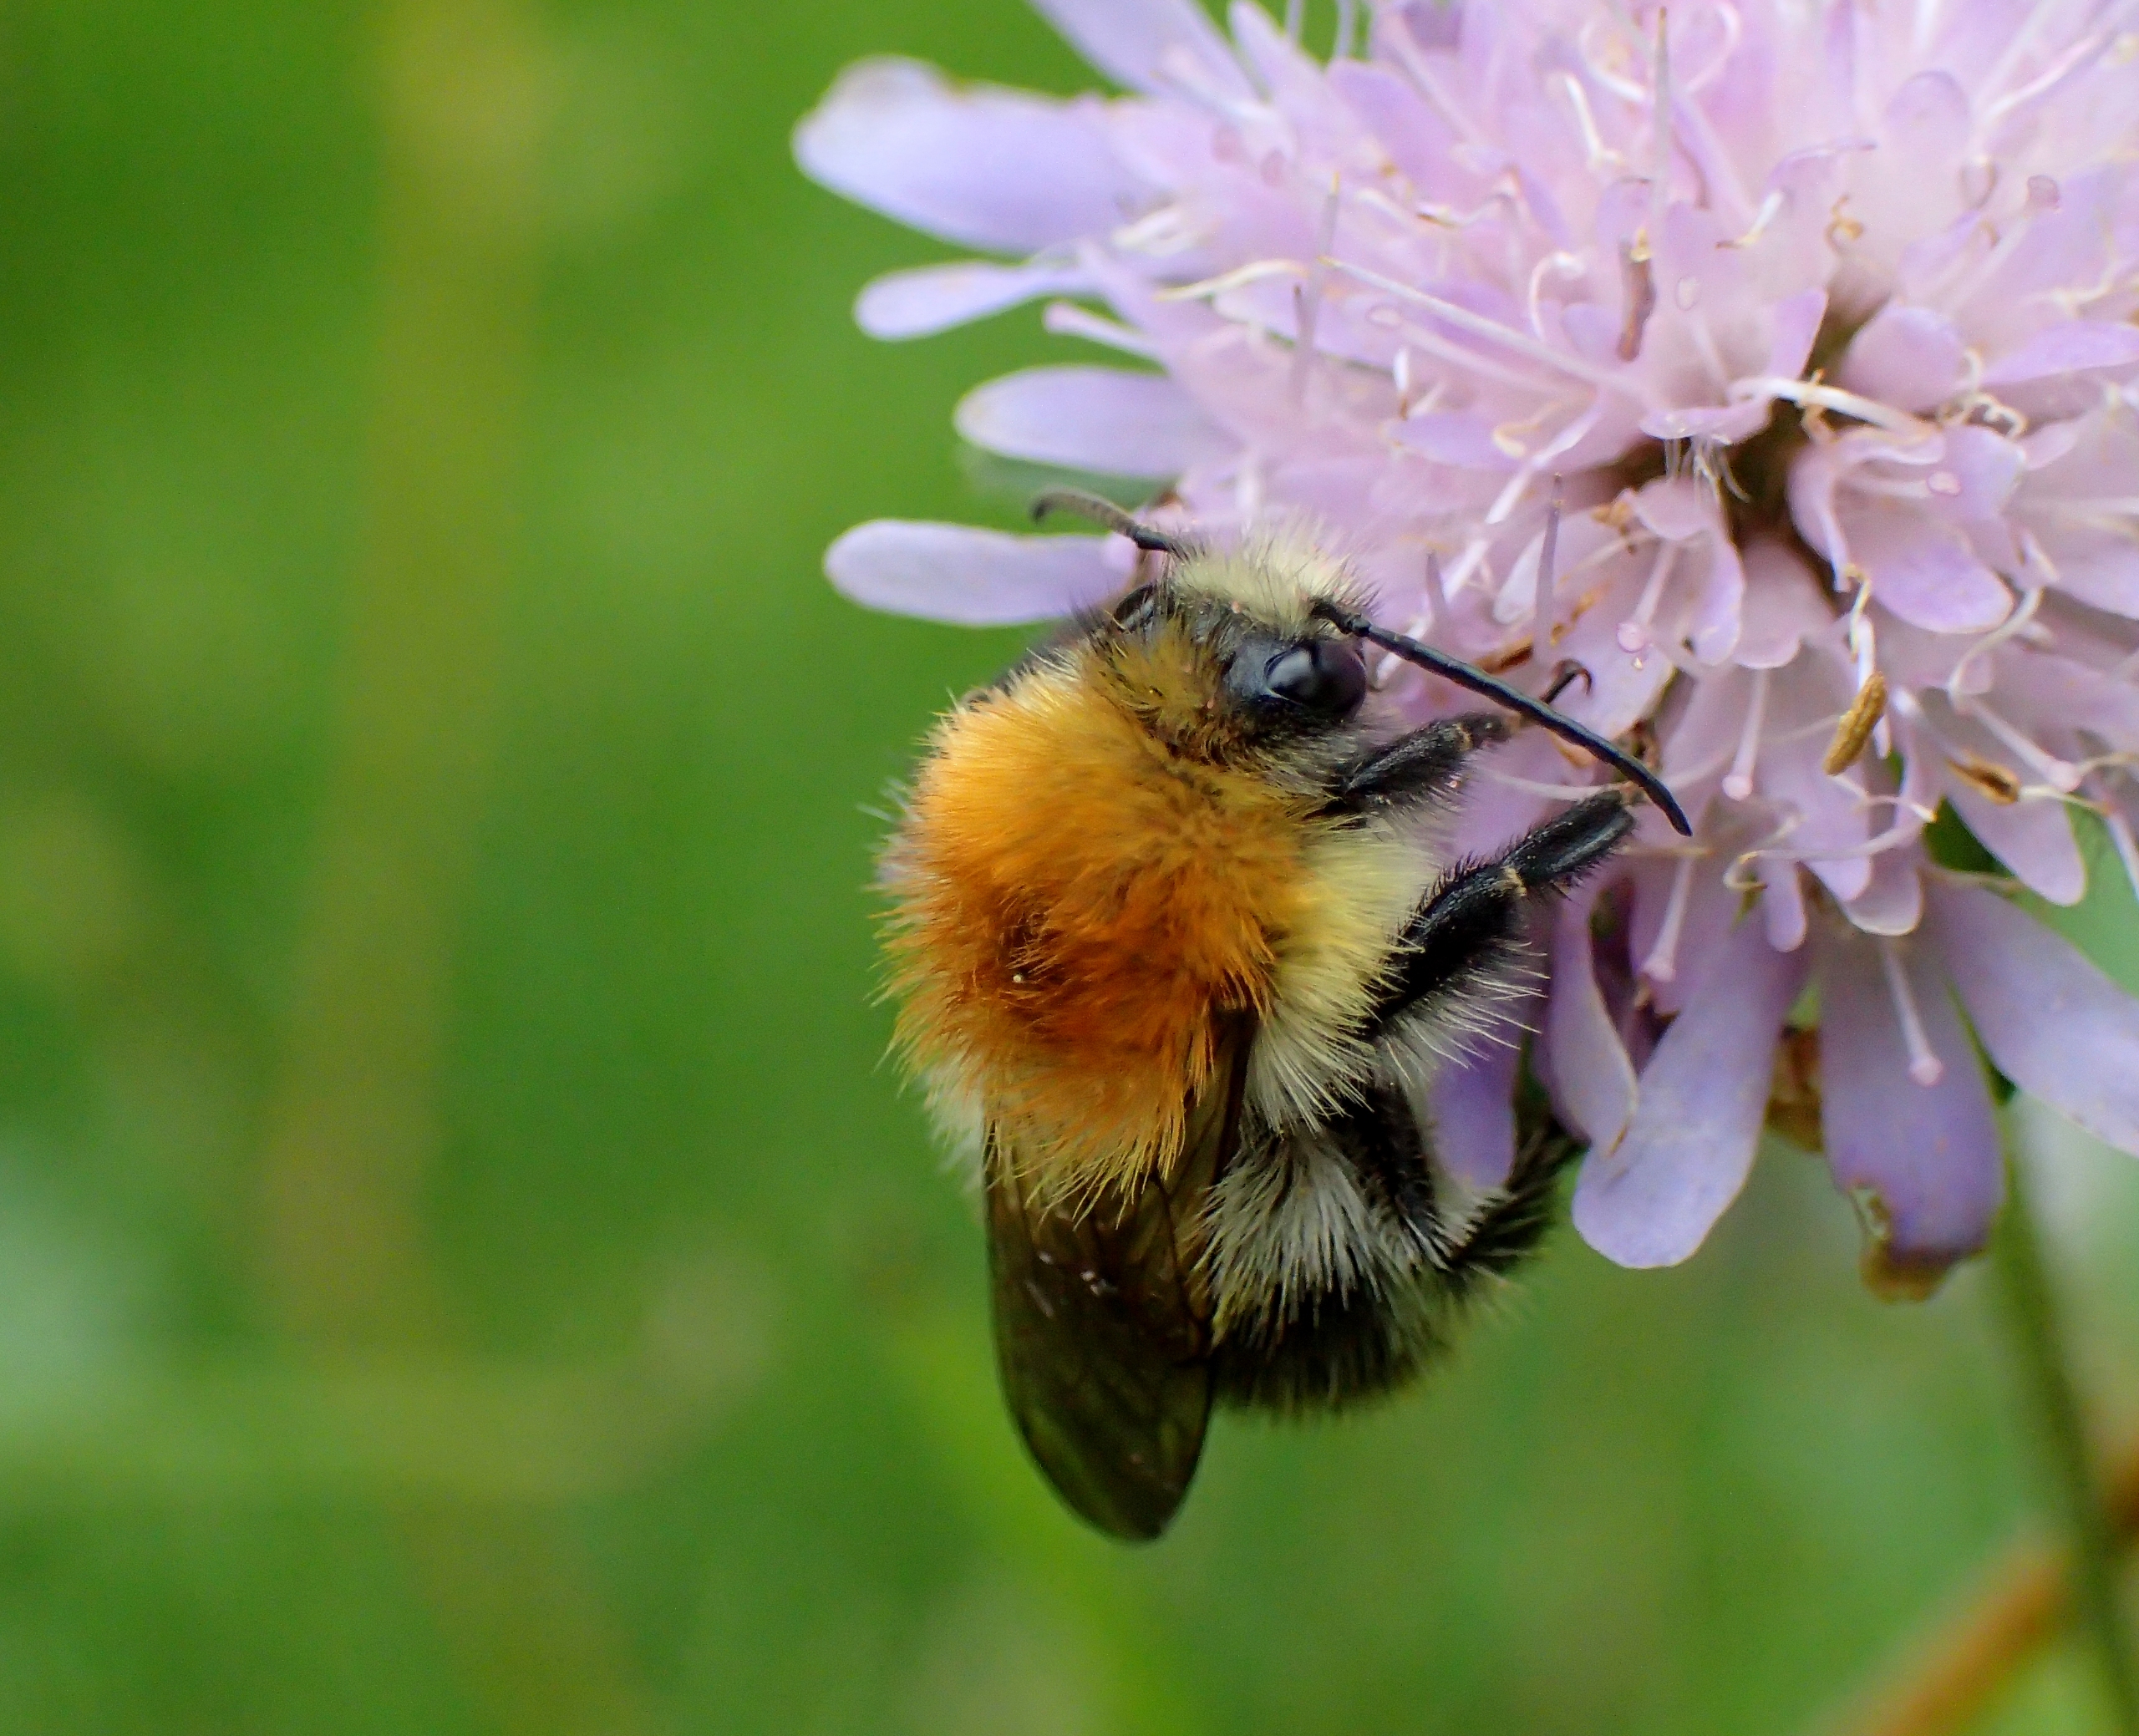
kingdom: Animalia
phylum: Arthropoda
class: Insecta
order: Hymenoptera
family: Apidae
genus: Bombus
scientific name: Bombus pascuorum
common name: Agerhumle
